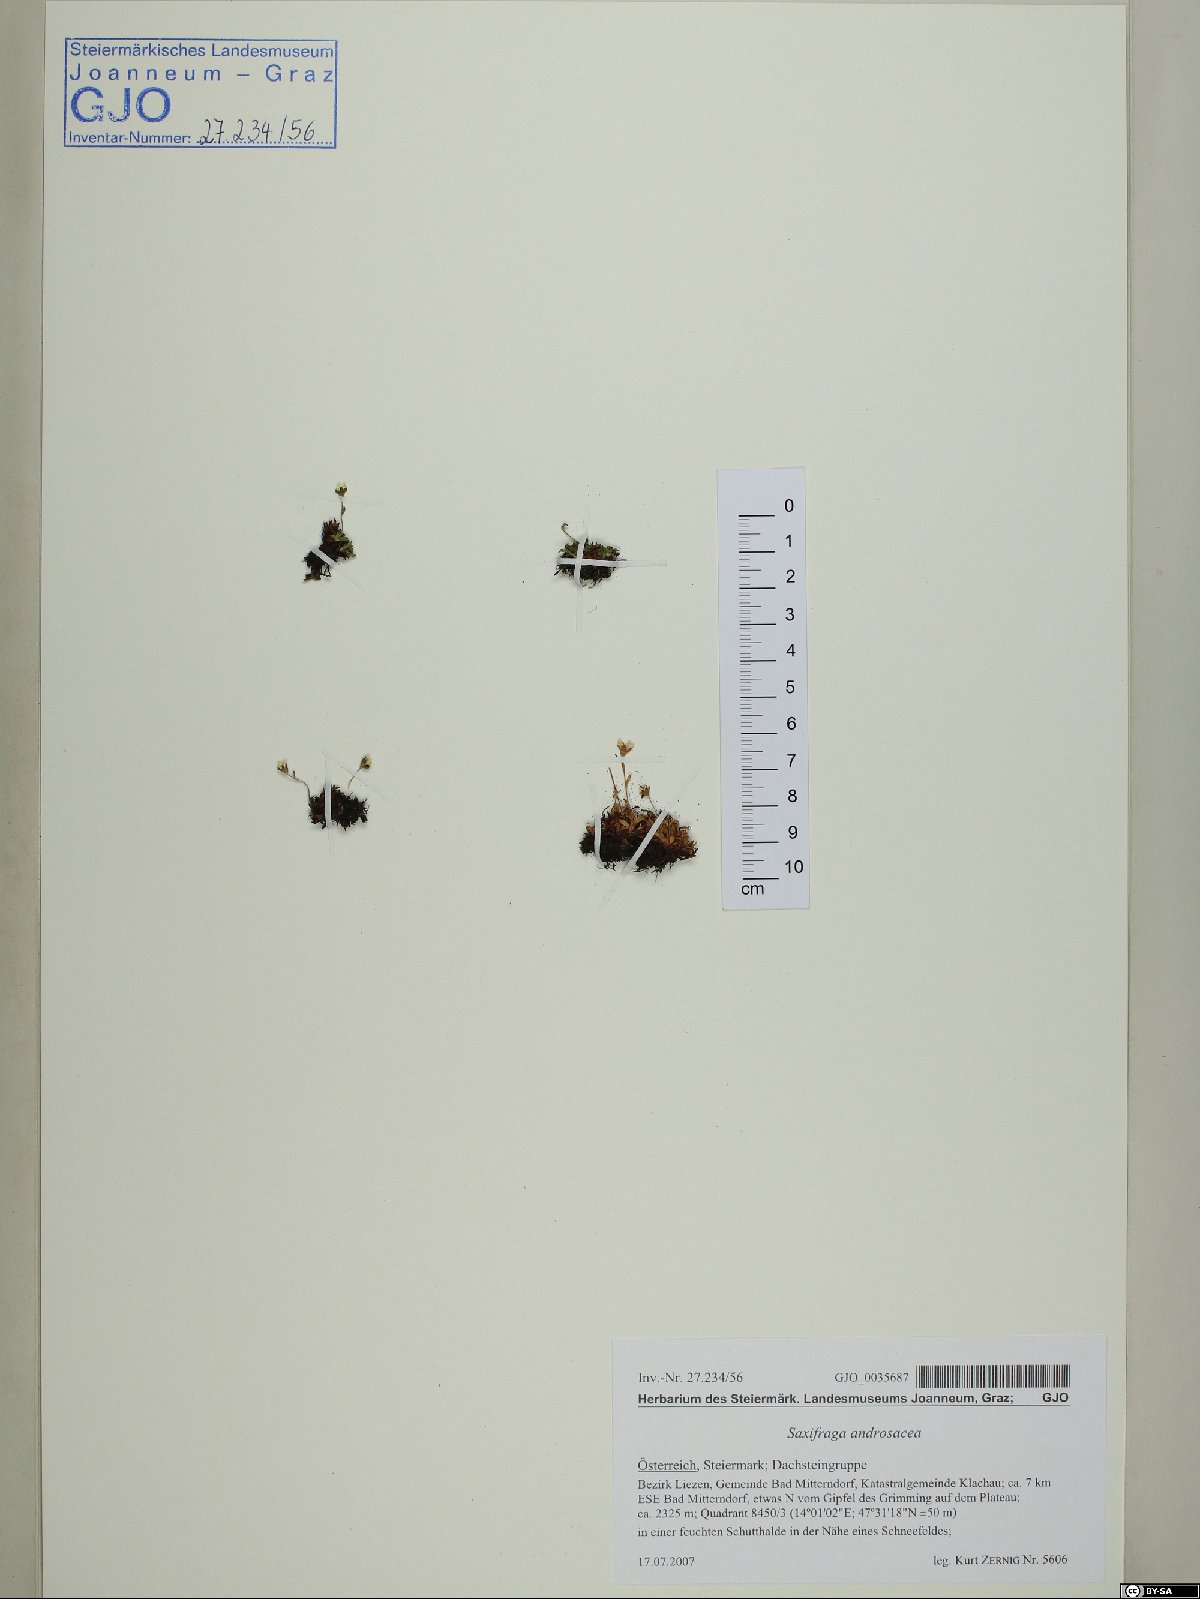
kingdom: Plantae
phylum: Tracheophyta
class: Magnoliopsida
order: Saxifragales
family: Saxifragaceae
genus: Saxifraga
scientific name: Saxifraga androsacea
